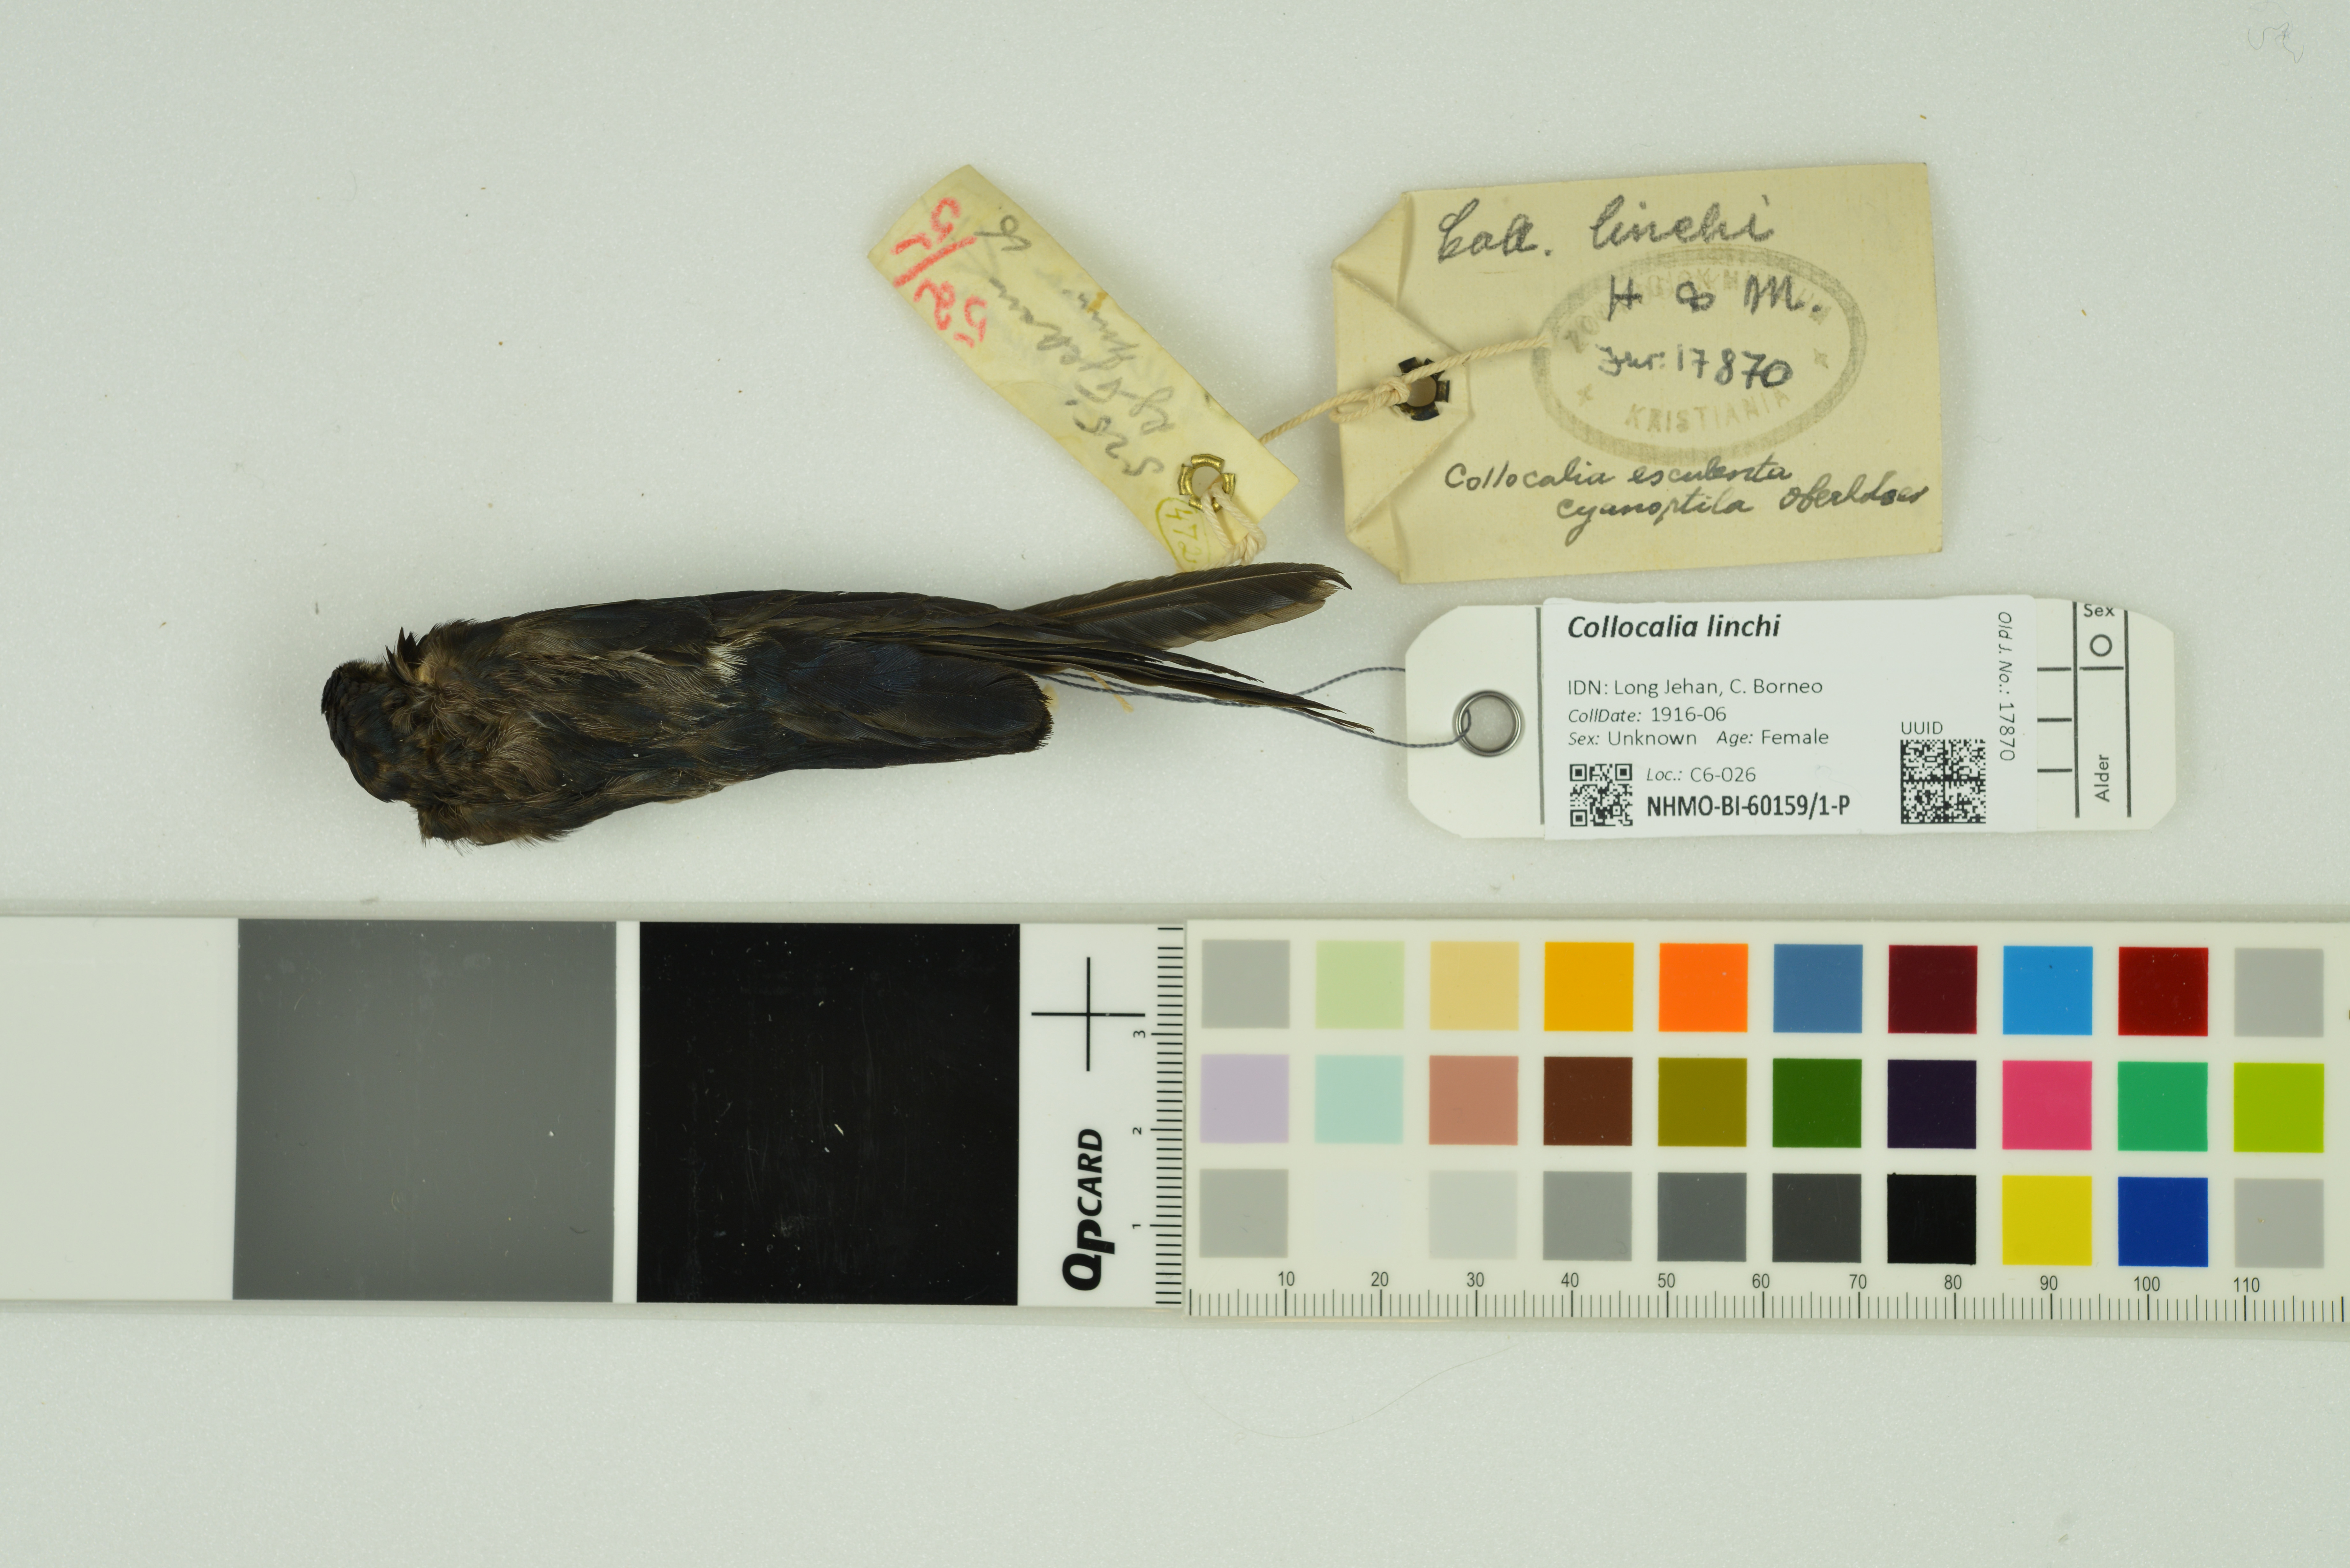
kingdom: Animalia
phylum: Chordata
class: Aves
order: Apodiformes
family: Apodidae
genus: Collocalia
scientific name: Collocalia linchi
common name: Cave swiftlet
